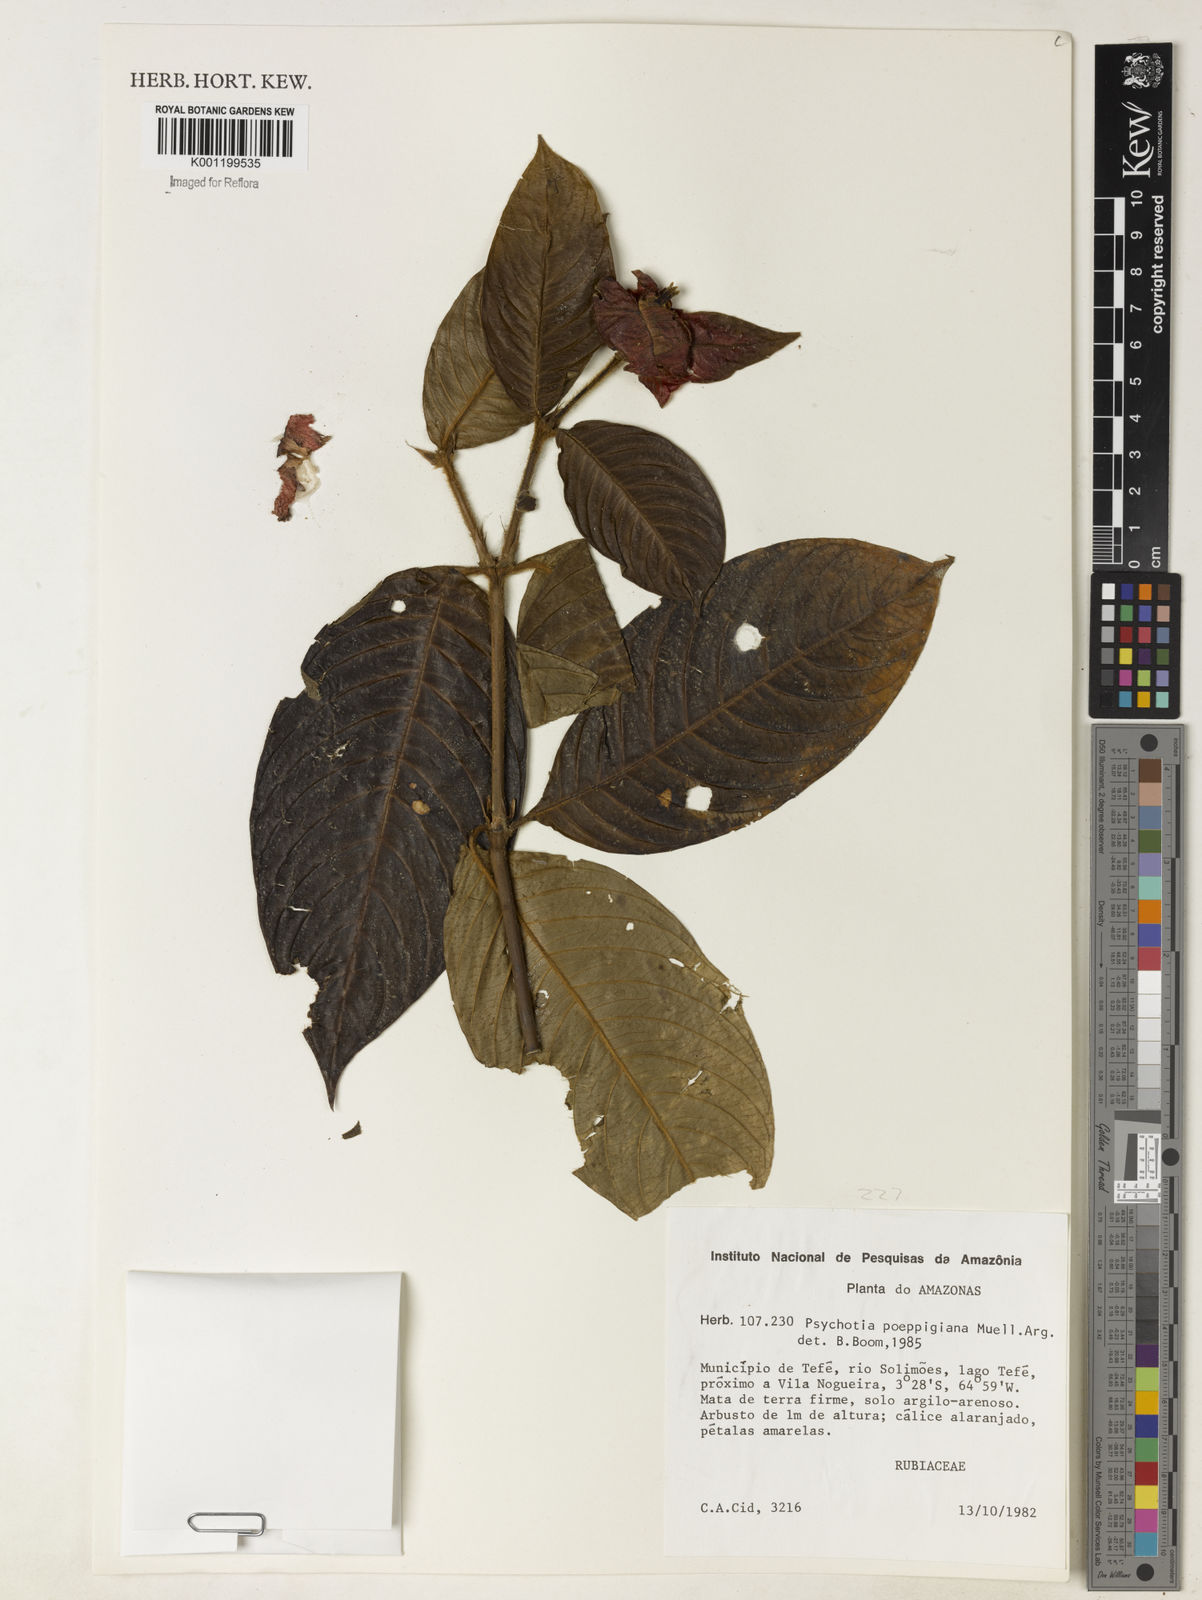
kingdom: Plantae
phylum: Tracheophyta
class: Magnoliopsida
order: Gentianales
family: Rubiaceae
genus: Psychotria
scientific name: Psychotria
